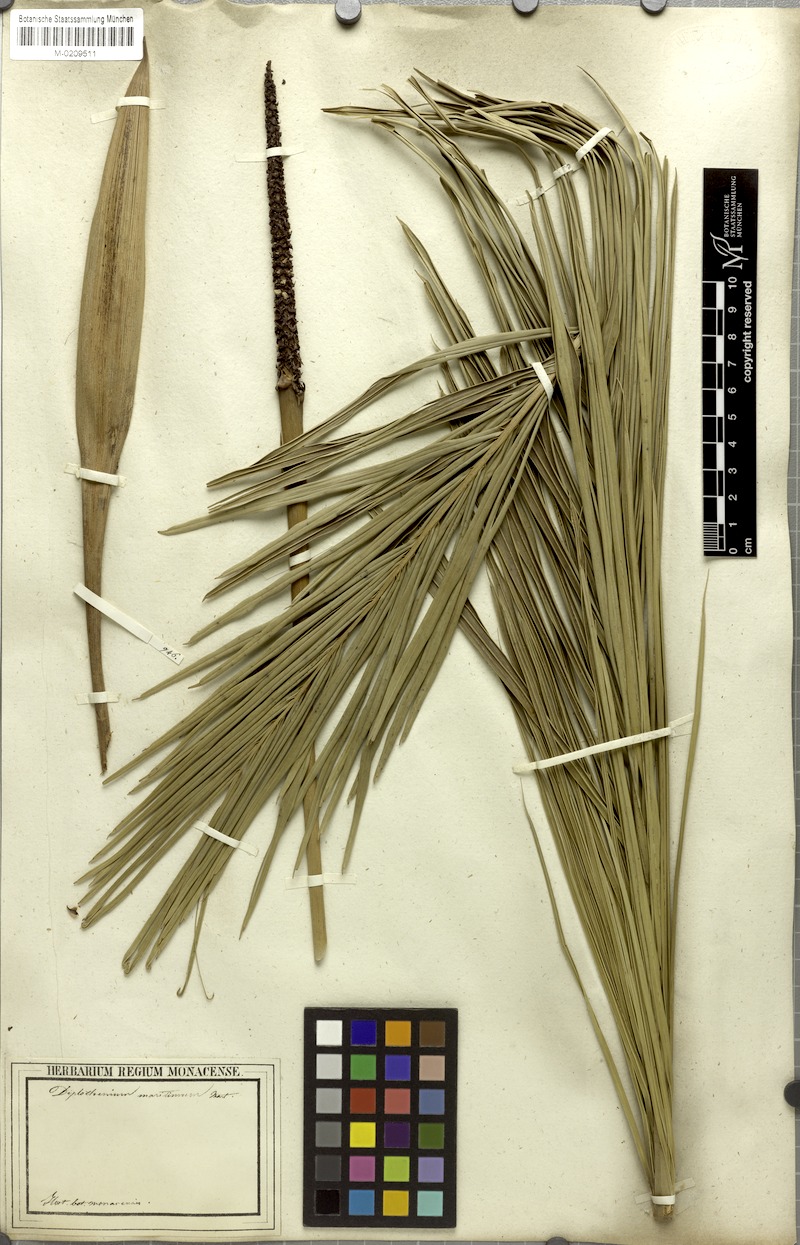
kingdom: Plantae
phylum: Tracheophyta
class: Liliopsida
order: Arecales
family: Arecaceae
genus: Allagoptera
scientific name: Allagoptera arenaria
